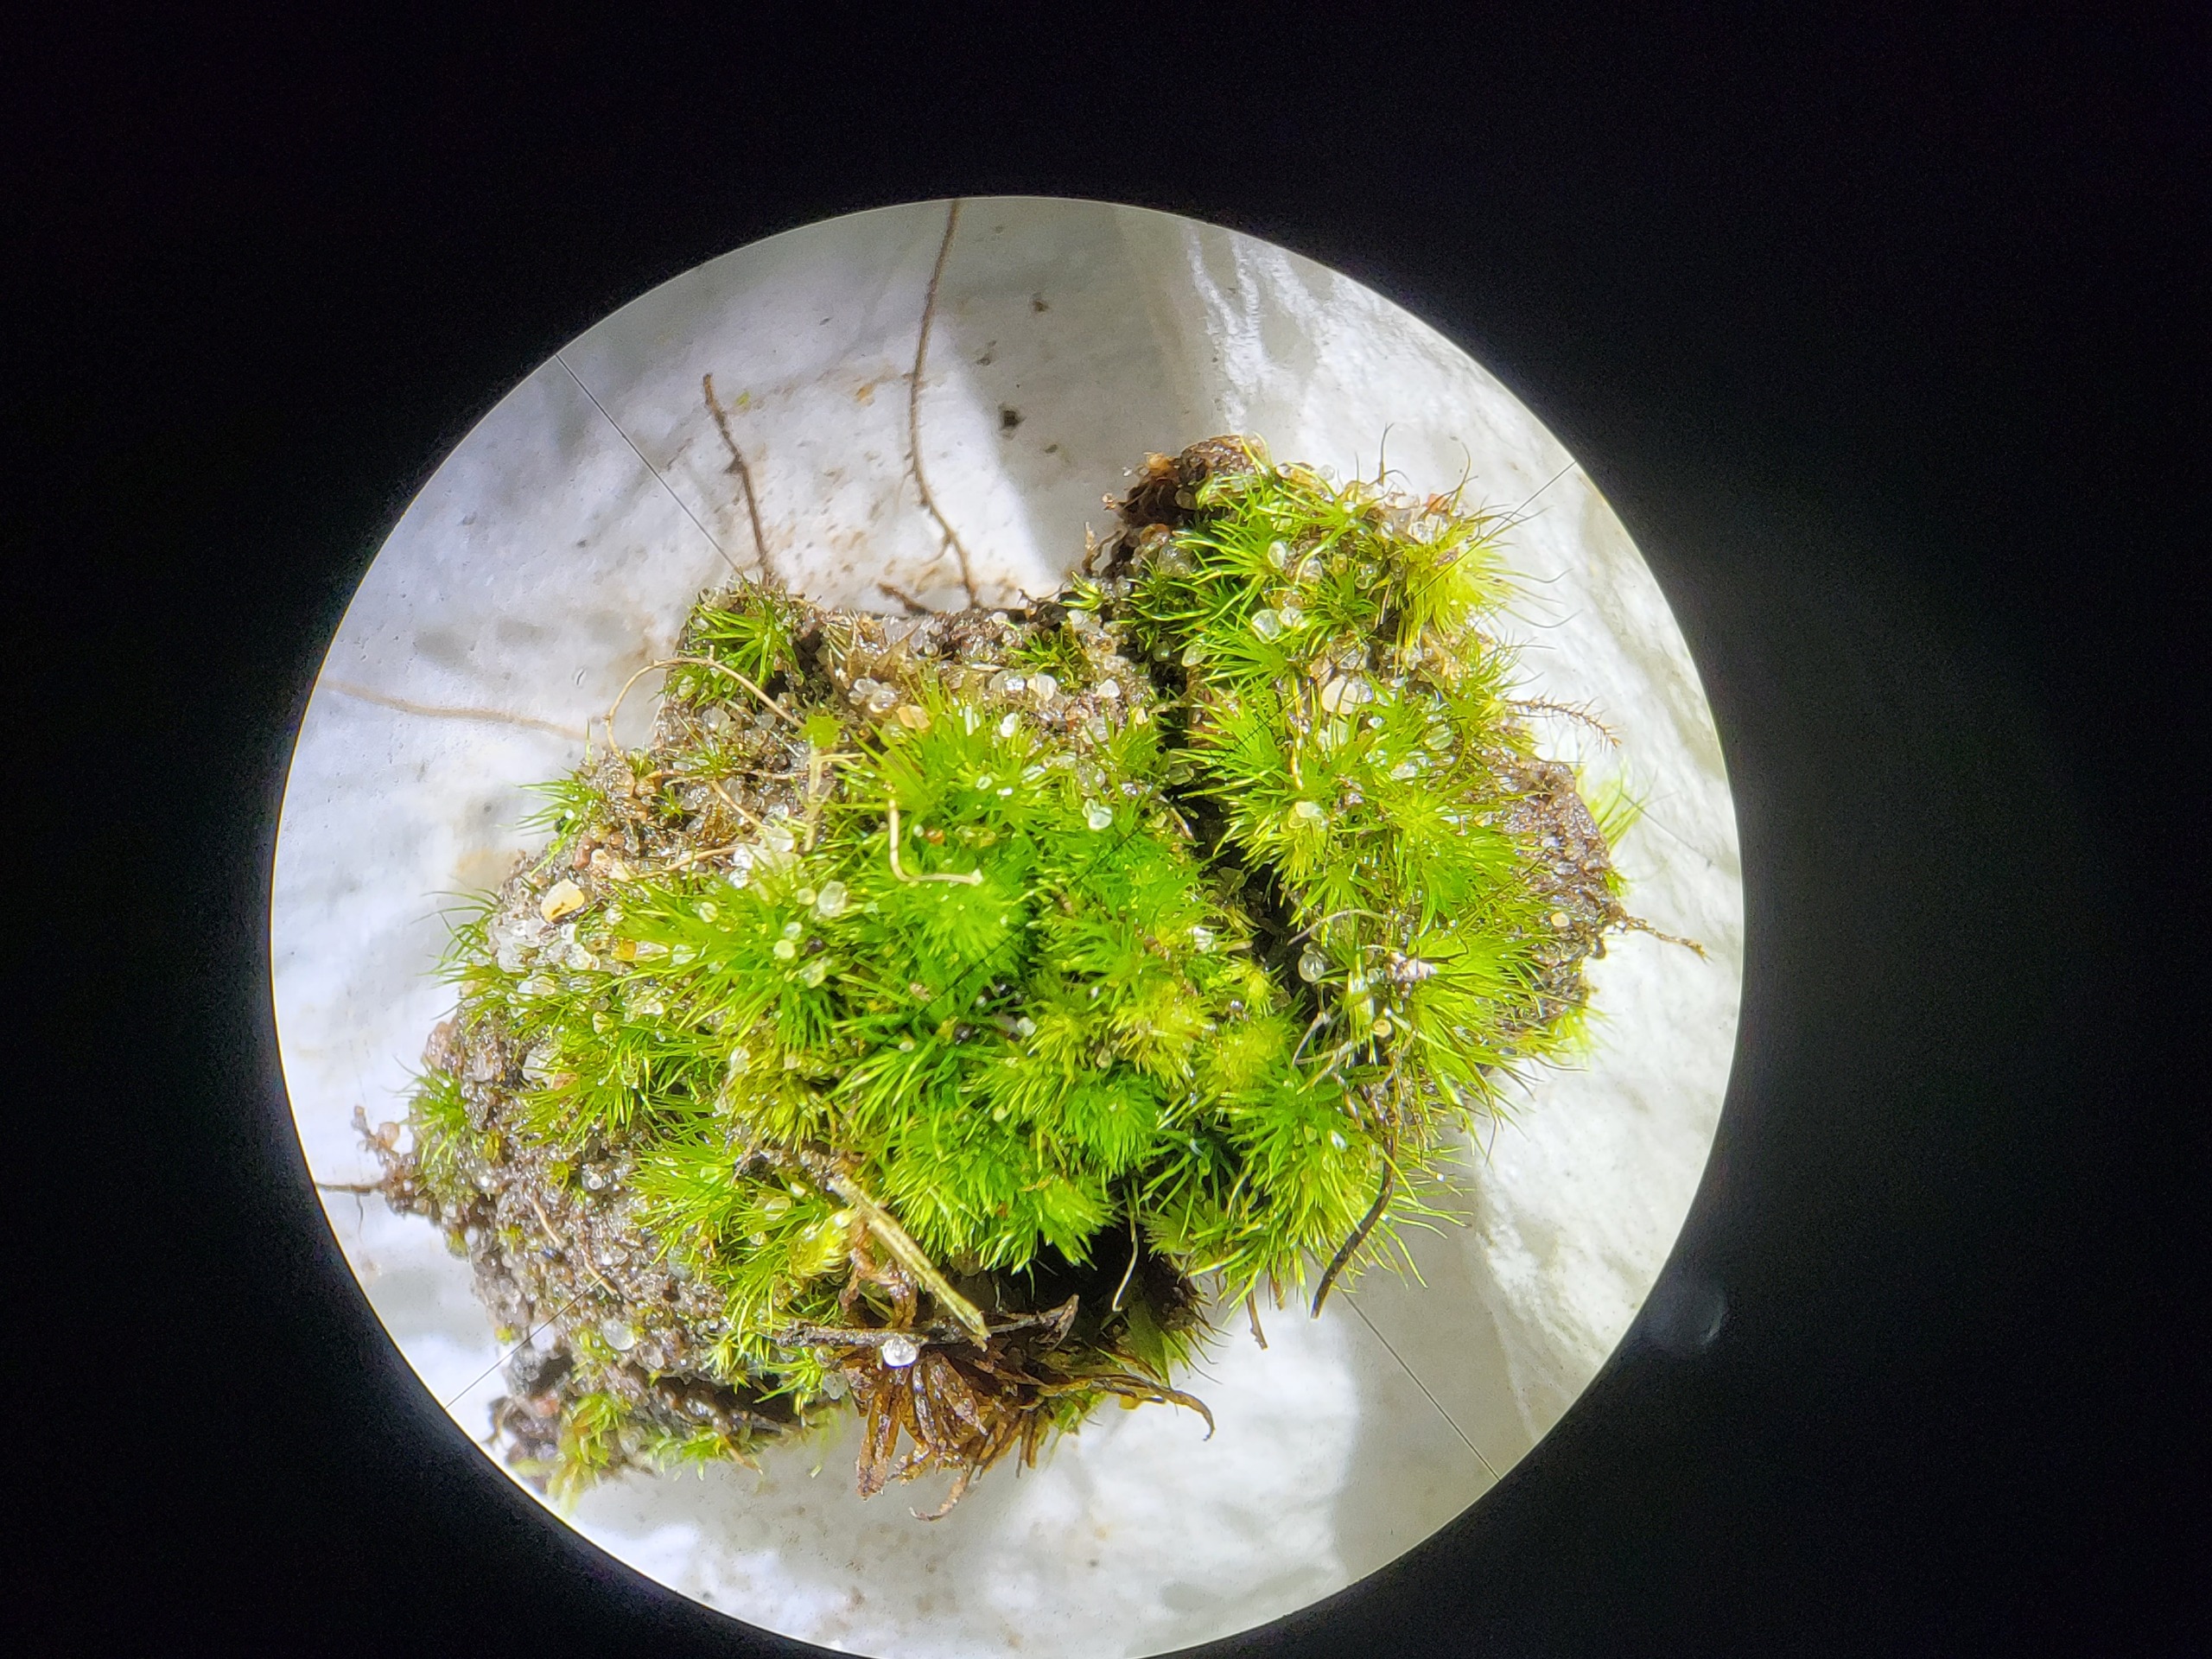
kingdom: Plantae
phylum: Bryophyta
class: Bryopsida
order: Dicranales
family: Leucobryaceae
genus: Campylopus
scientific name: Campylopus fragilis
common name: Skør bredribbe
